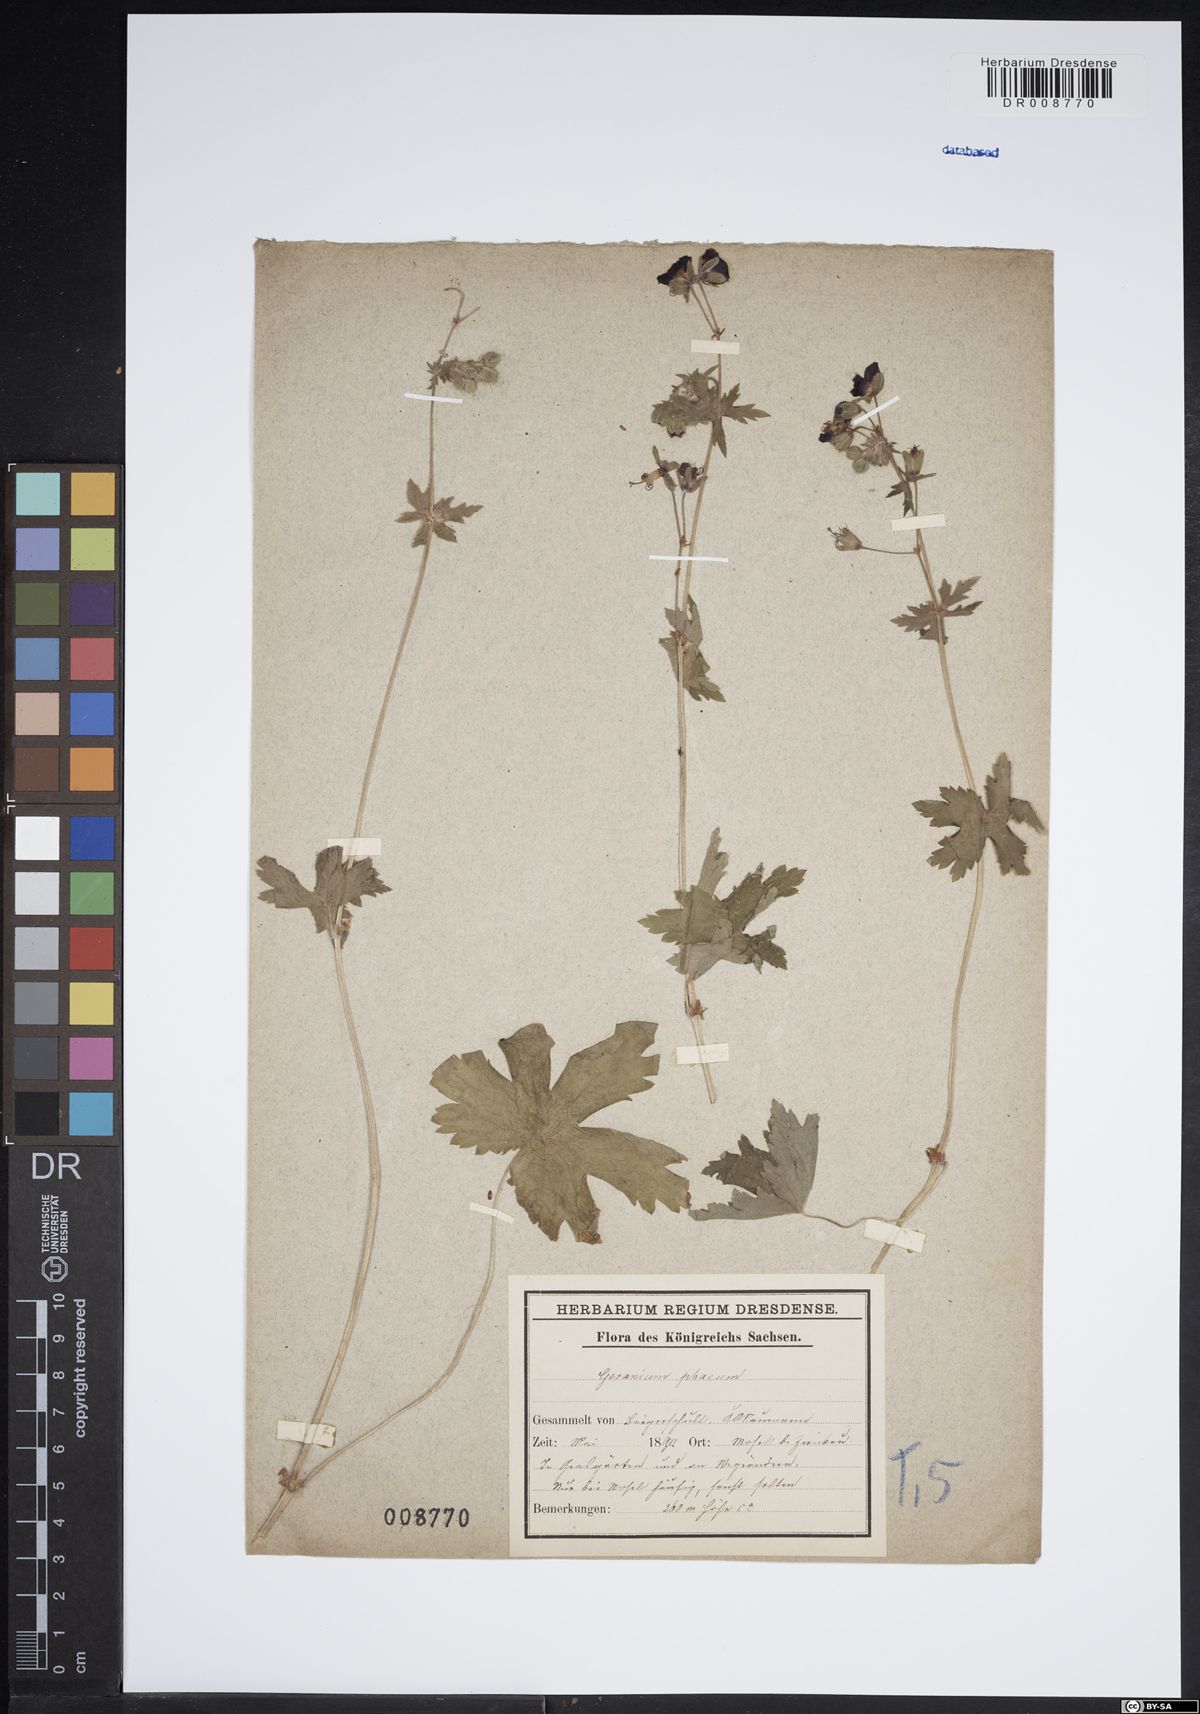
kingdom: Plantae
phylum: Tracheophyta
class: Magnoliopsida
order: Geraniales
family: Geraniaceae
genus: Geranium
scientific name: Geranium phaeum
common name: Dusky crane's-bill
